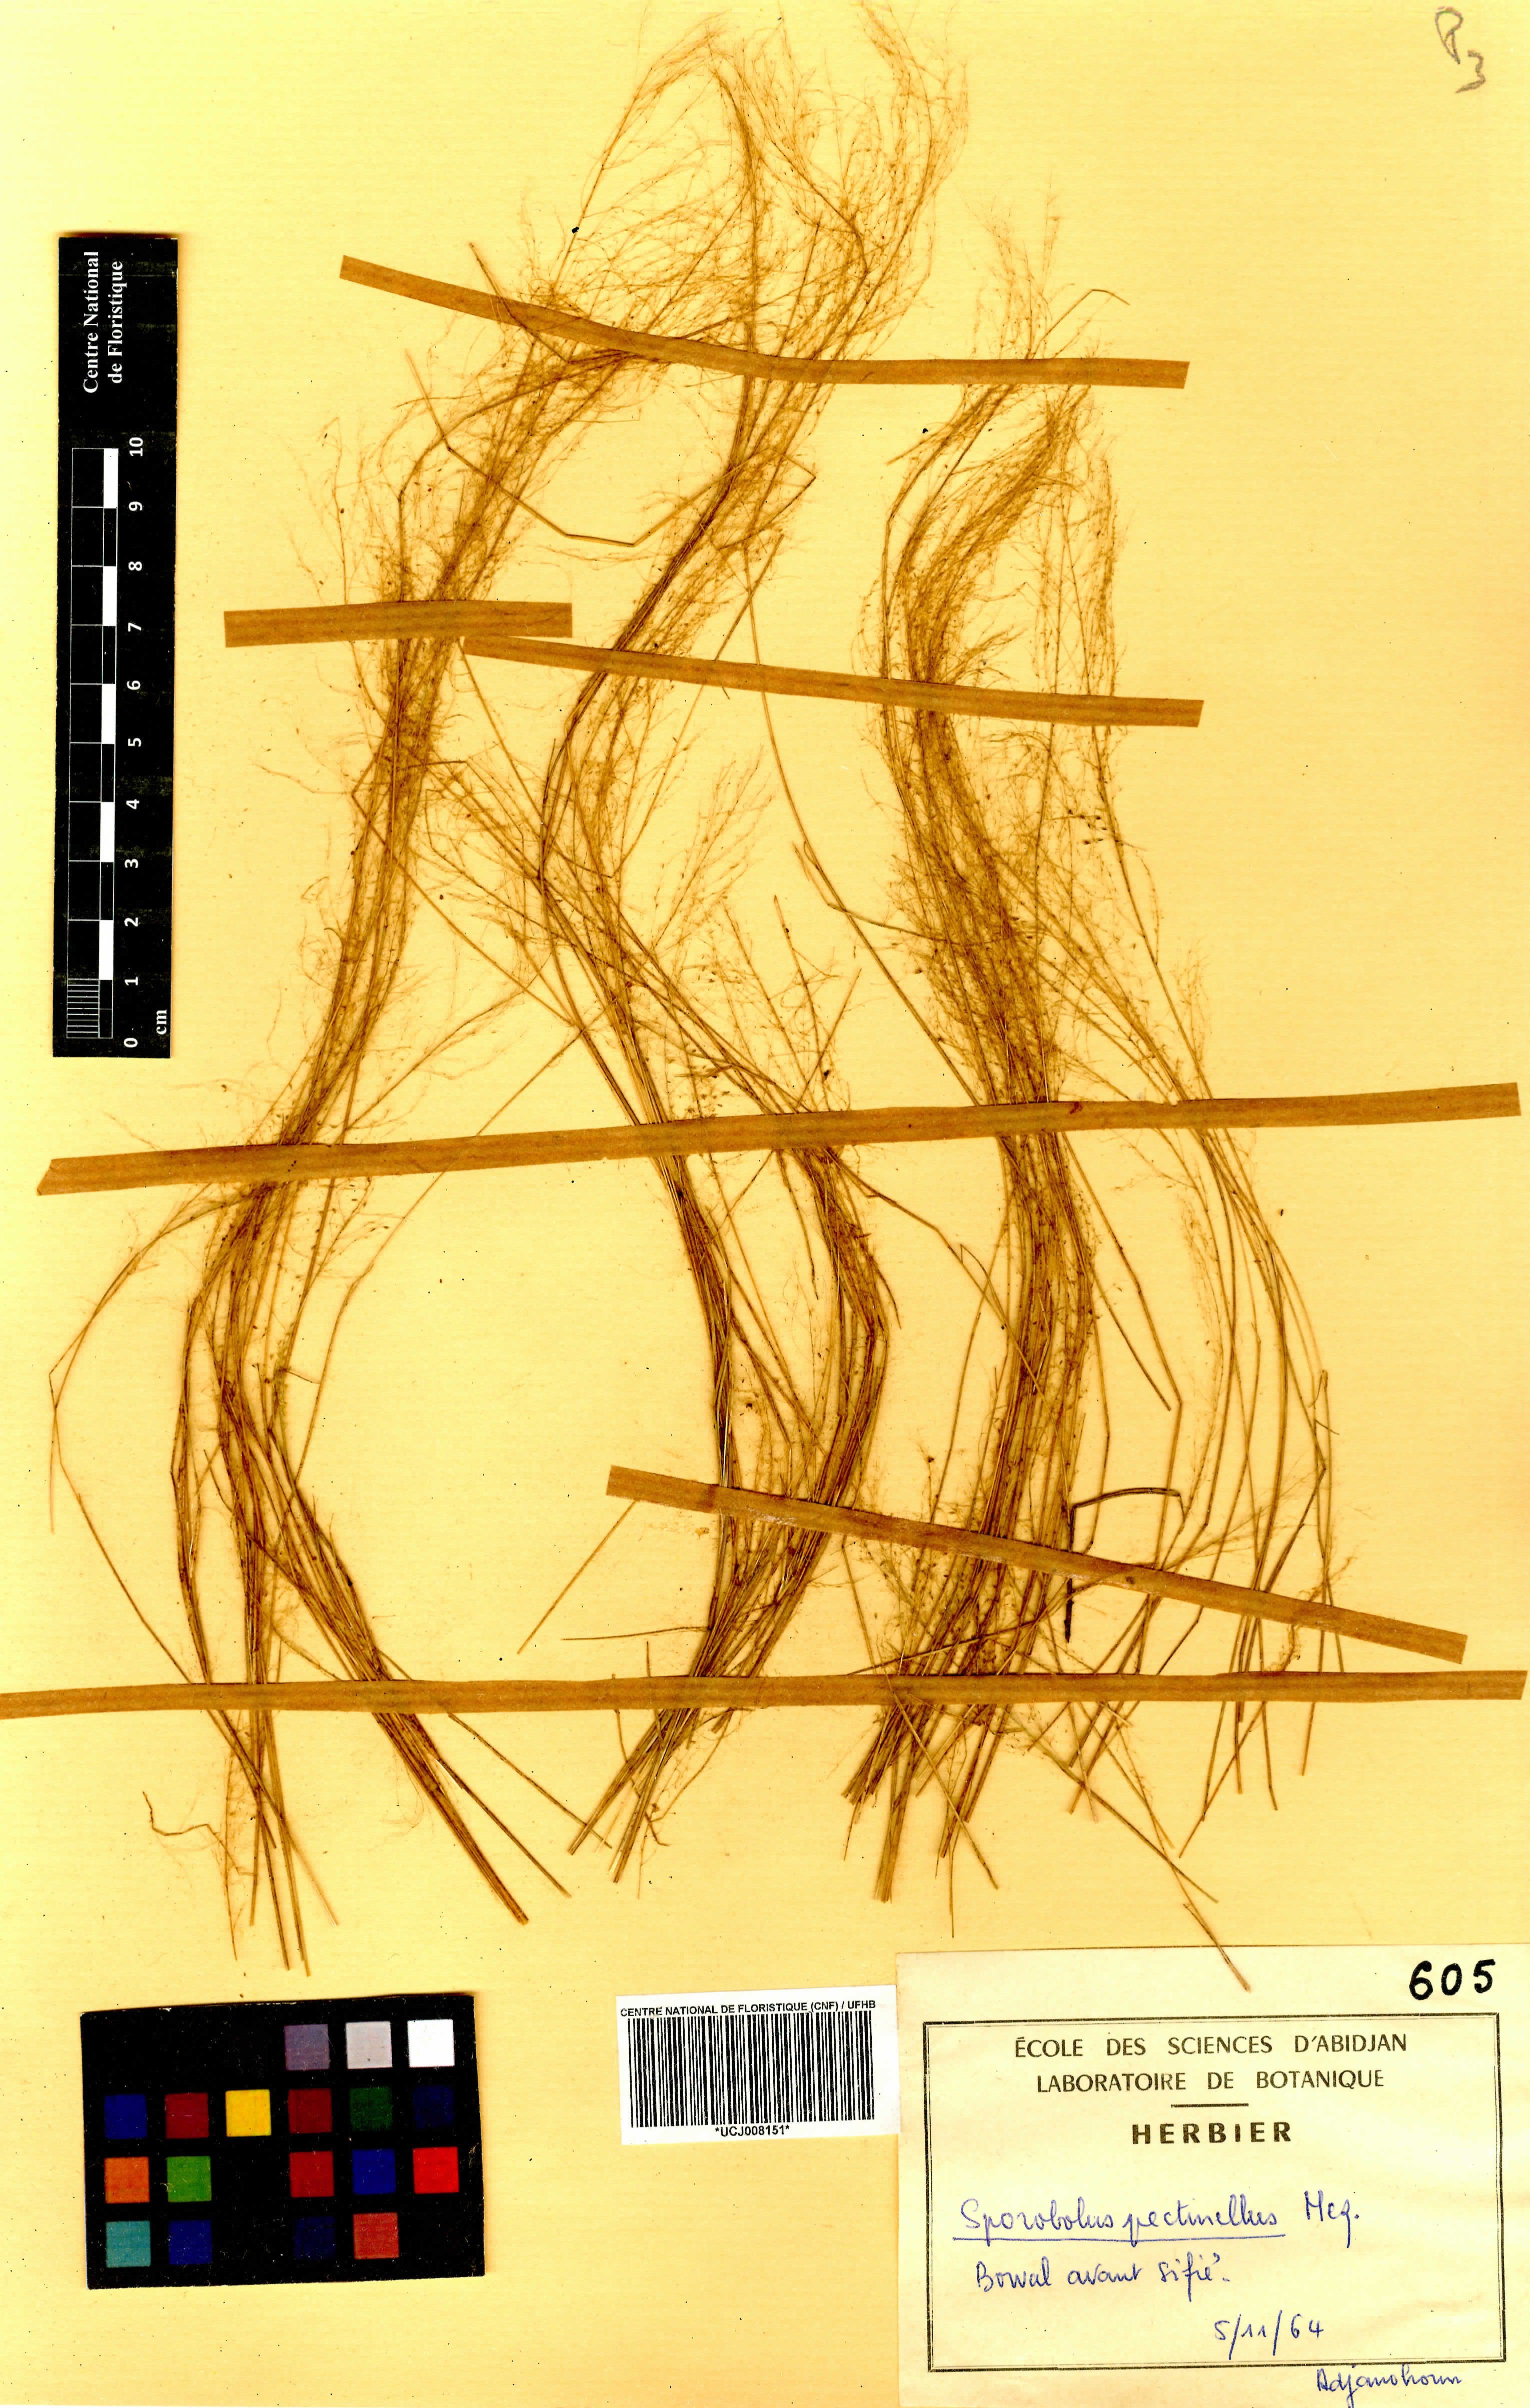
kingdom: Plantae
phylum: Tracheophyta
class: Liliopsida
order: Poales
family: Poaceae
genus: Sporobolus
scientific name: Sporobolus pectinellus
